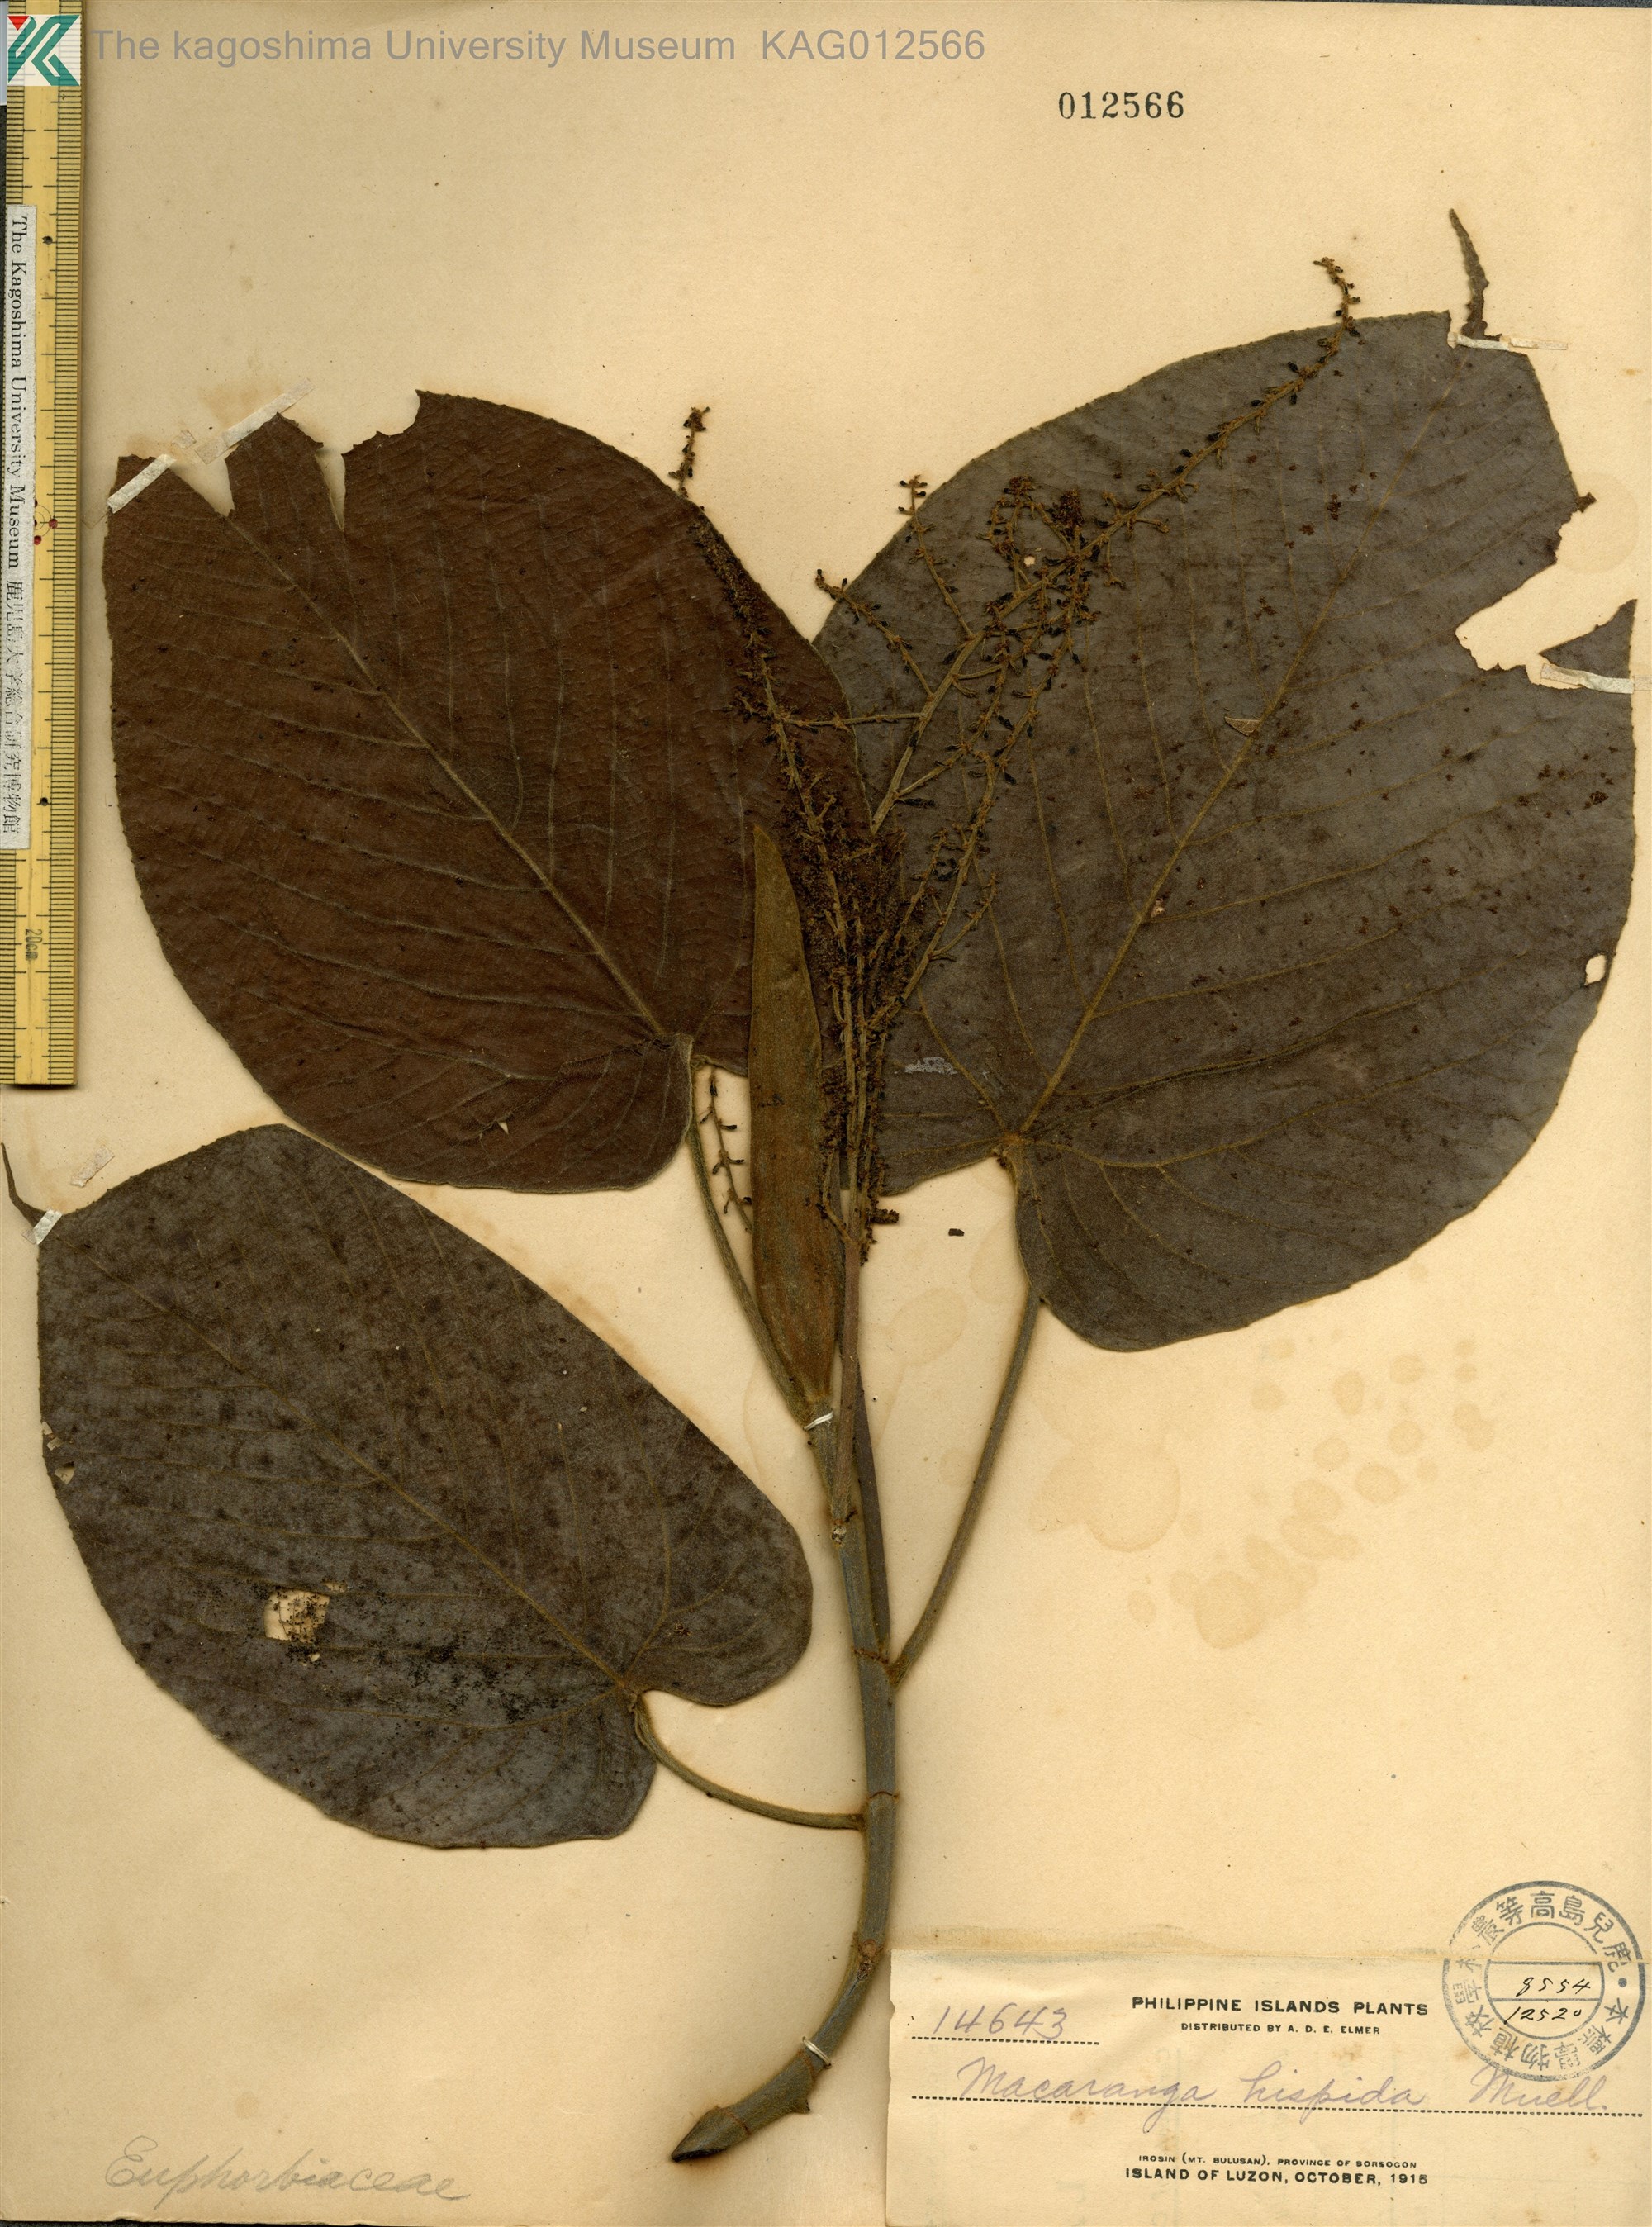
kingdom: Plantae
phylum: Tracheophyta
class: Magnoliopsida
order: Malpighiales
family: Euphorbiaceae
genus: Macaranga
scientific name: Macaranga hispida
